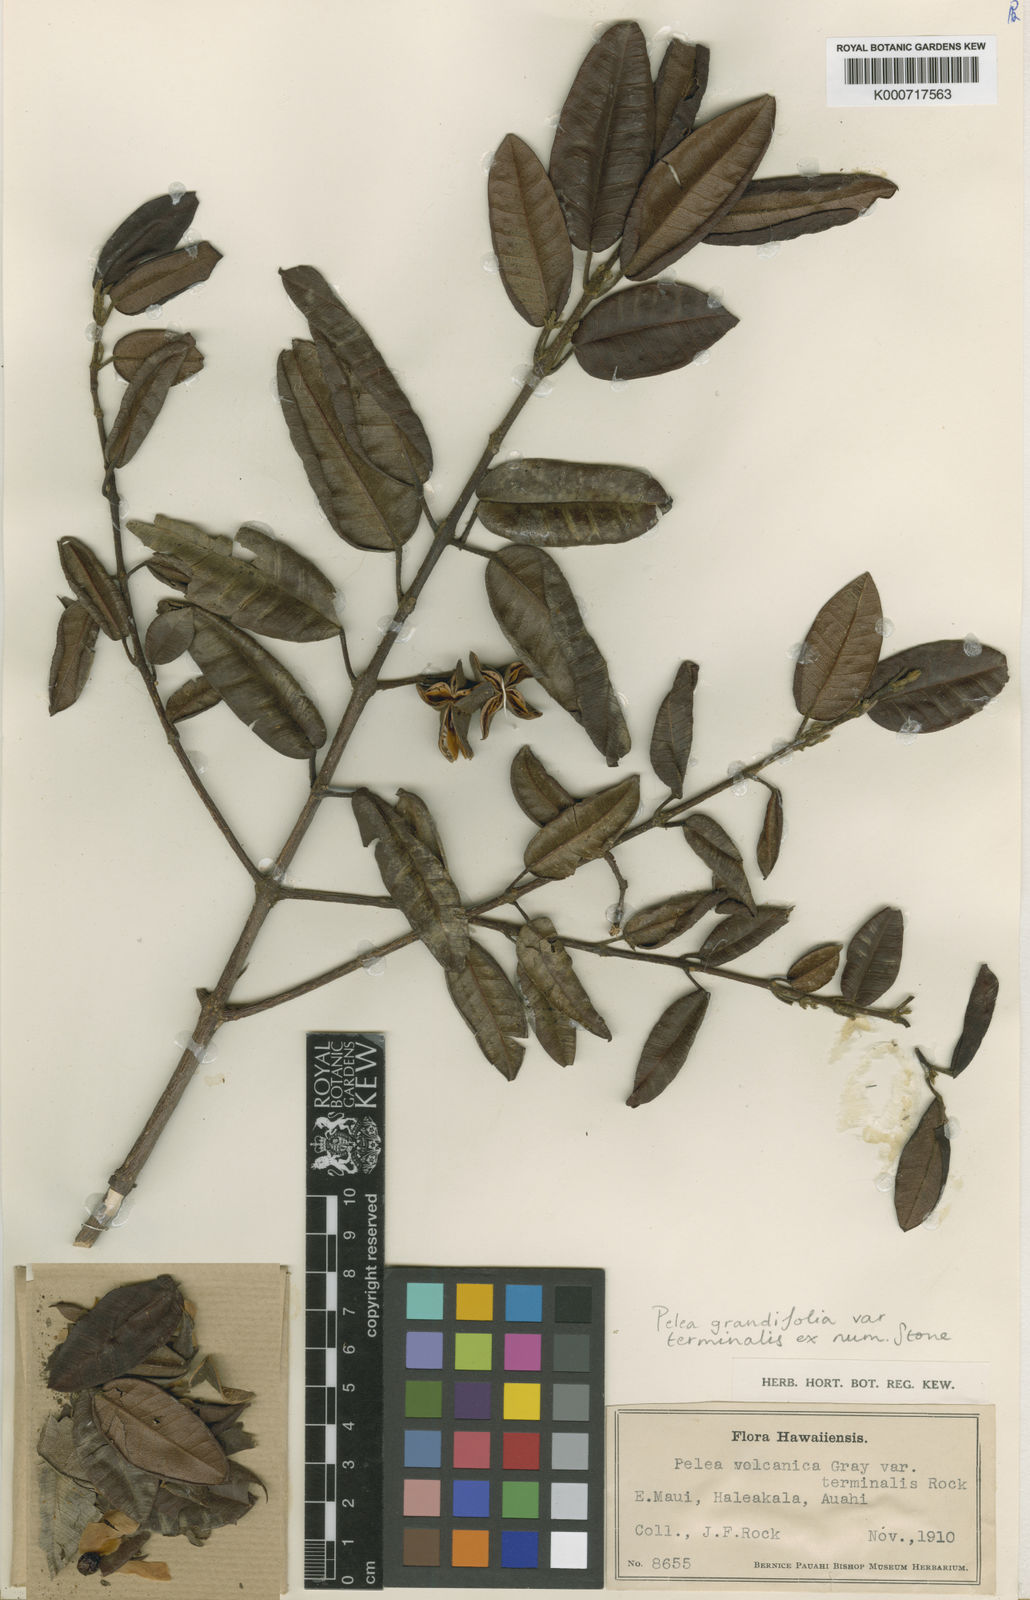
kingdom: Plantae
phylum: Tracheophyta
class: Magnoliopsida
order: Sapindales
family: Rutaceae
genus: Melicope
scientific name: Melicope volcanica
